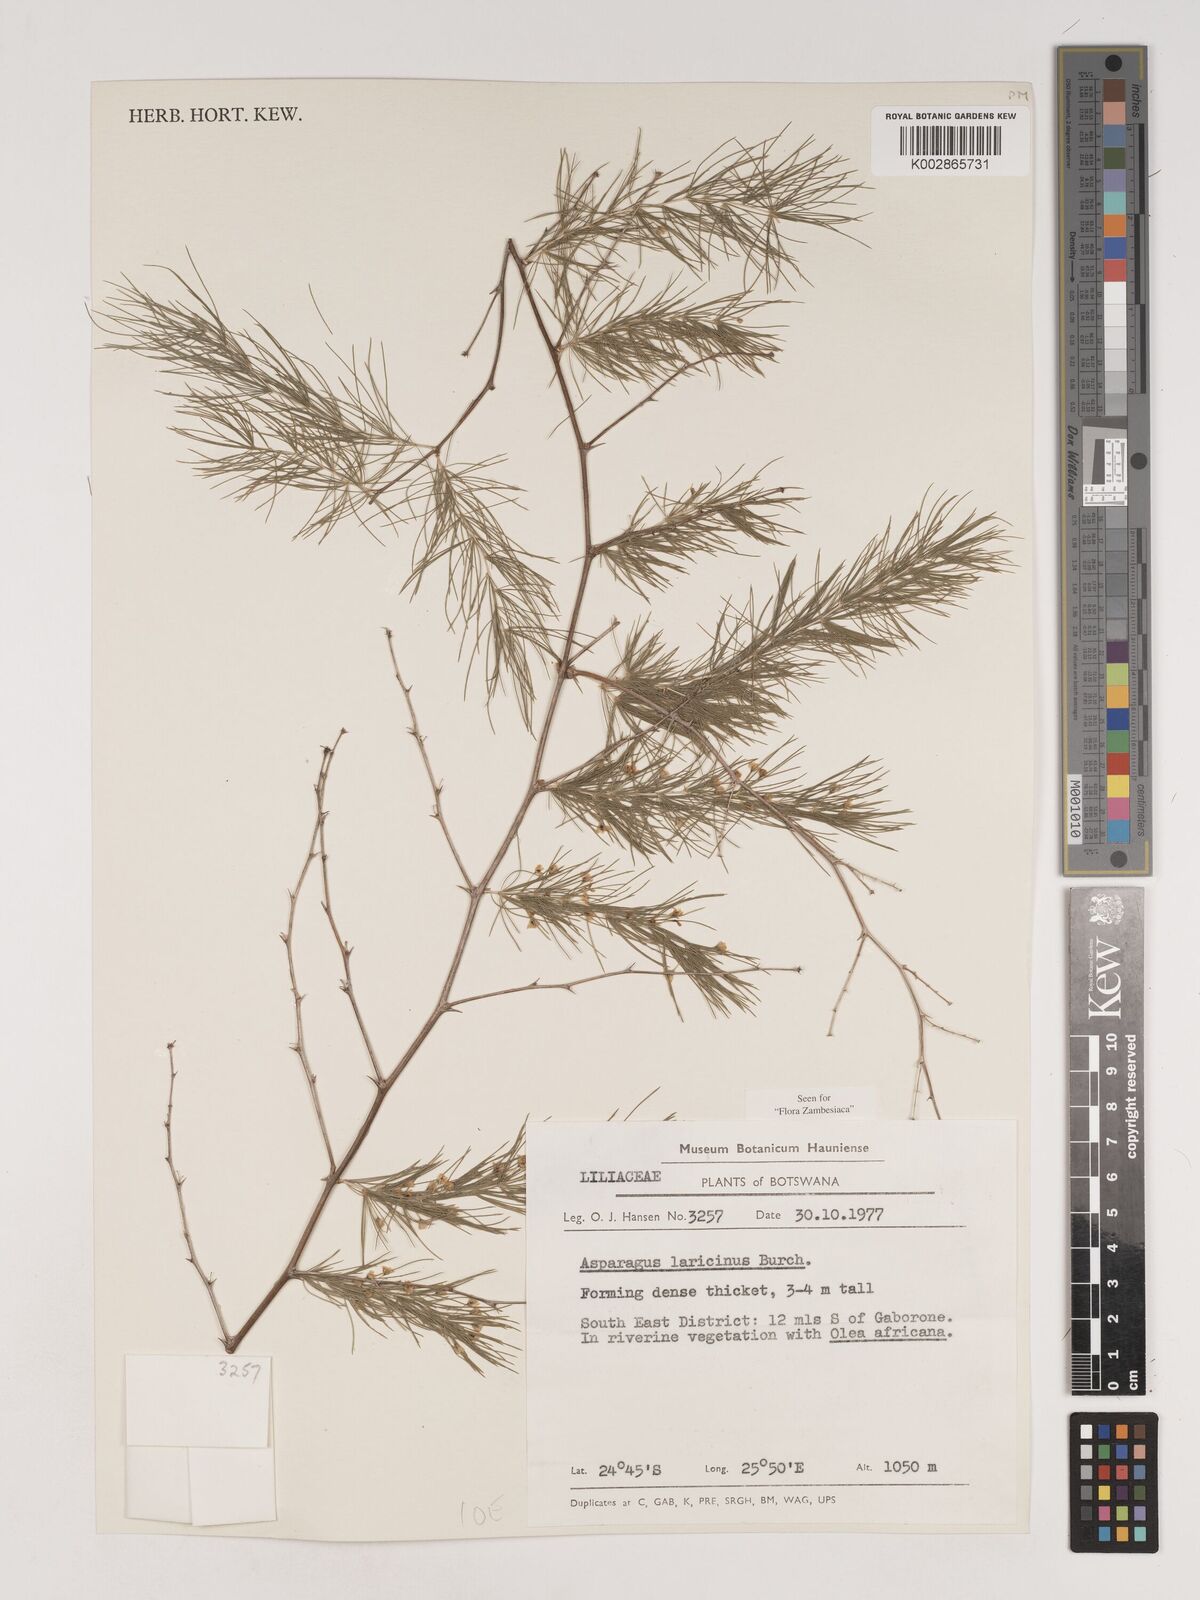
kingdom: Plantae
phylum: Tracheophyta
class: Liliopsida
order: Asparagales
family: Asparagaceae
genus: Asparagus
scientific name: Asparagus laricinus
